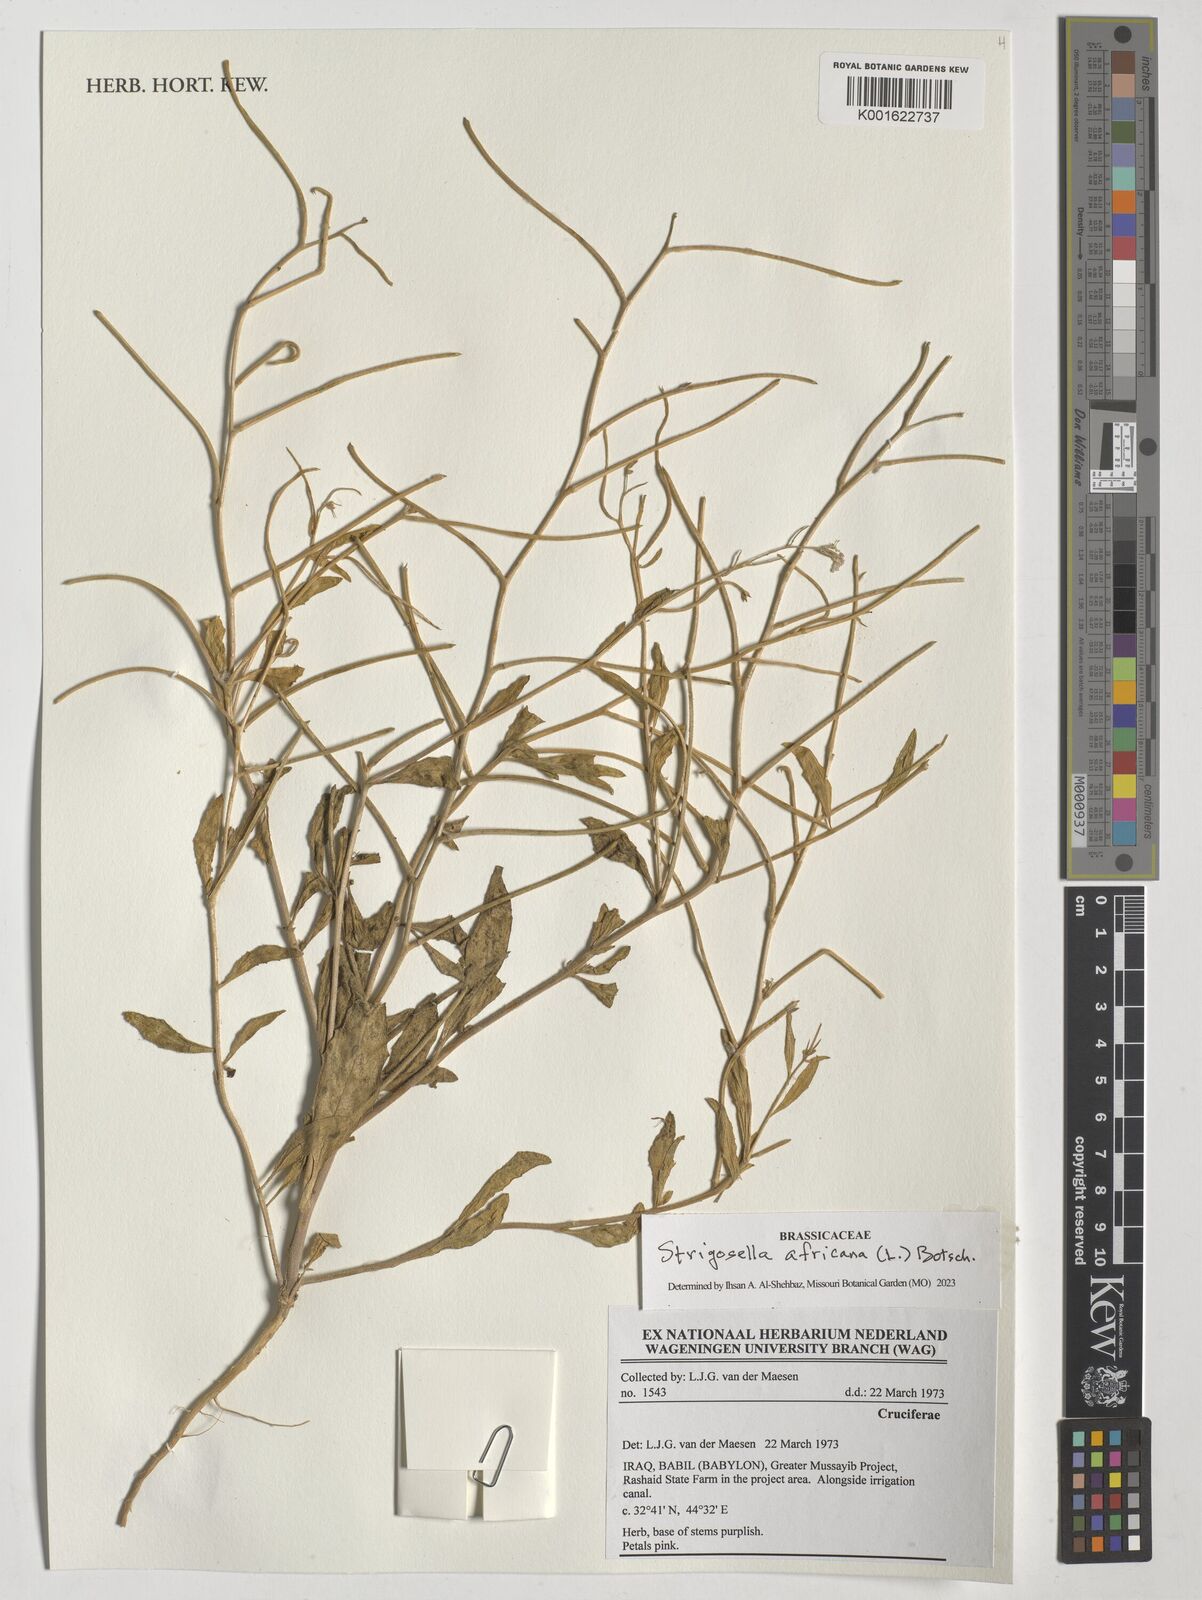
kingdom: Plantae
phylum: Tracheophyta
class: Magnoliopsida
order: Brassicales
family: Brassicaceae
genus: Strigosella
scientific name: Strigosella africana
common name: African mustard
